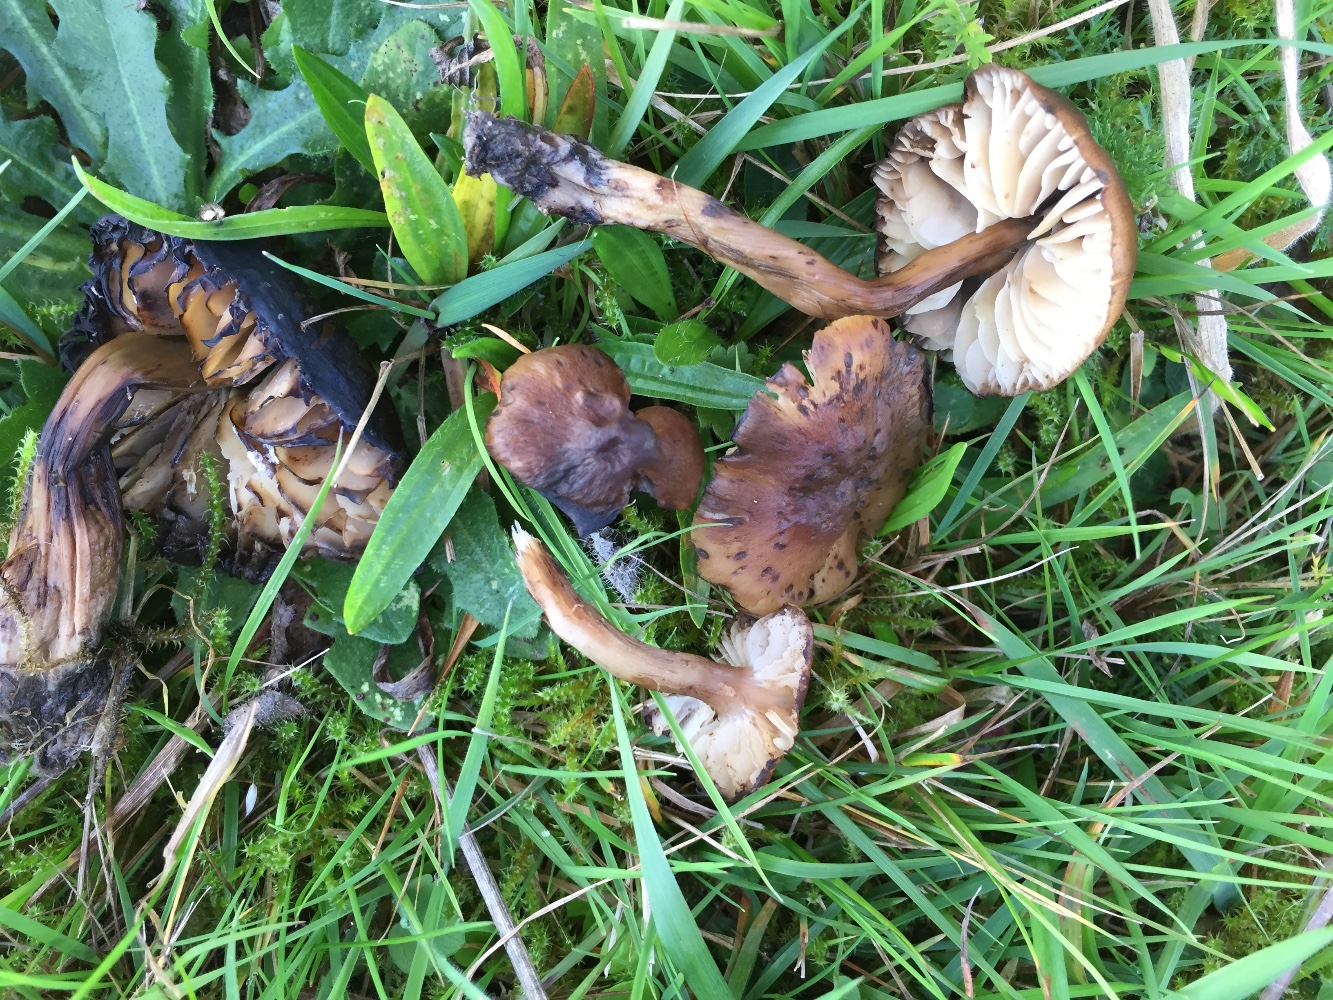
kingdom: Fungi
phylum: Basidiomycota
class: Agaricomycetes
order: Agaricales
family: Hygrophoraceae
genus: Hygrocybe
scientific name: Hygrocybe ingrata
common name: Jensens vokshat
